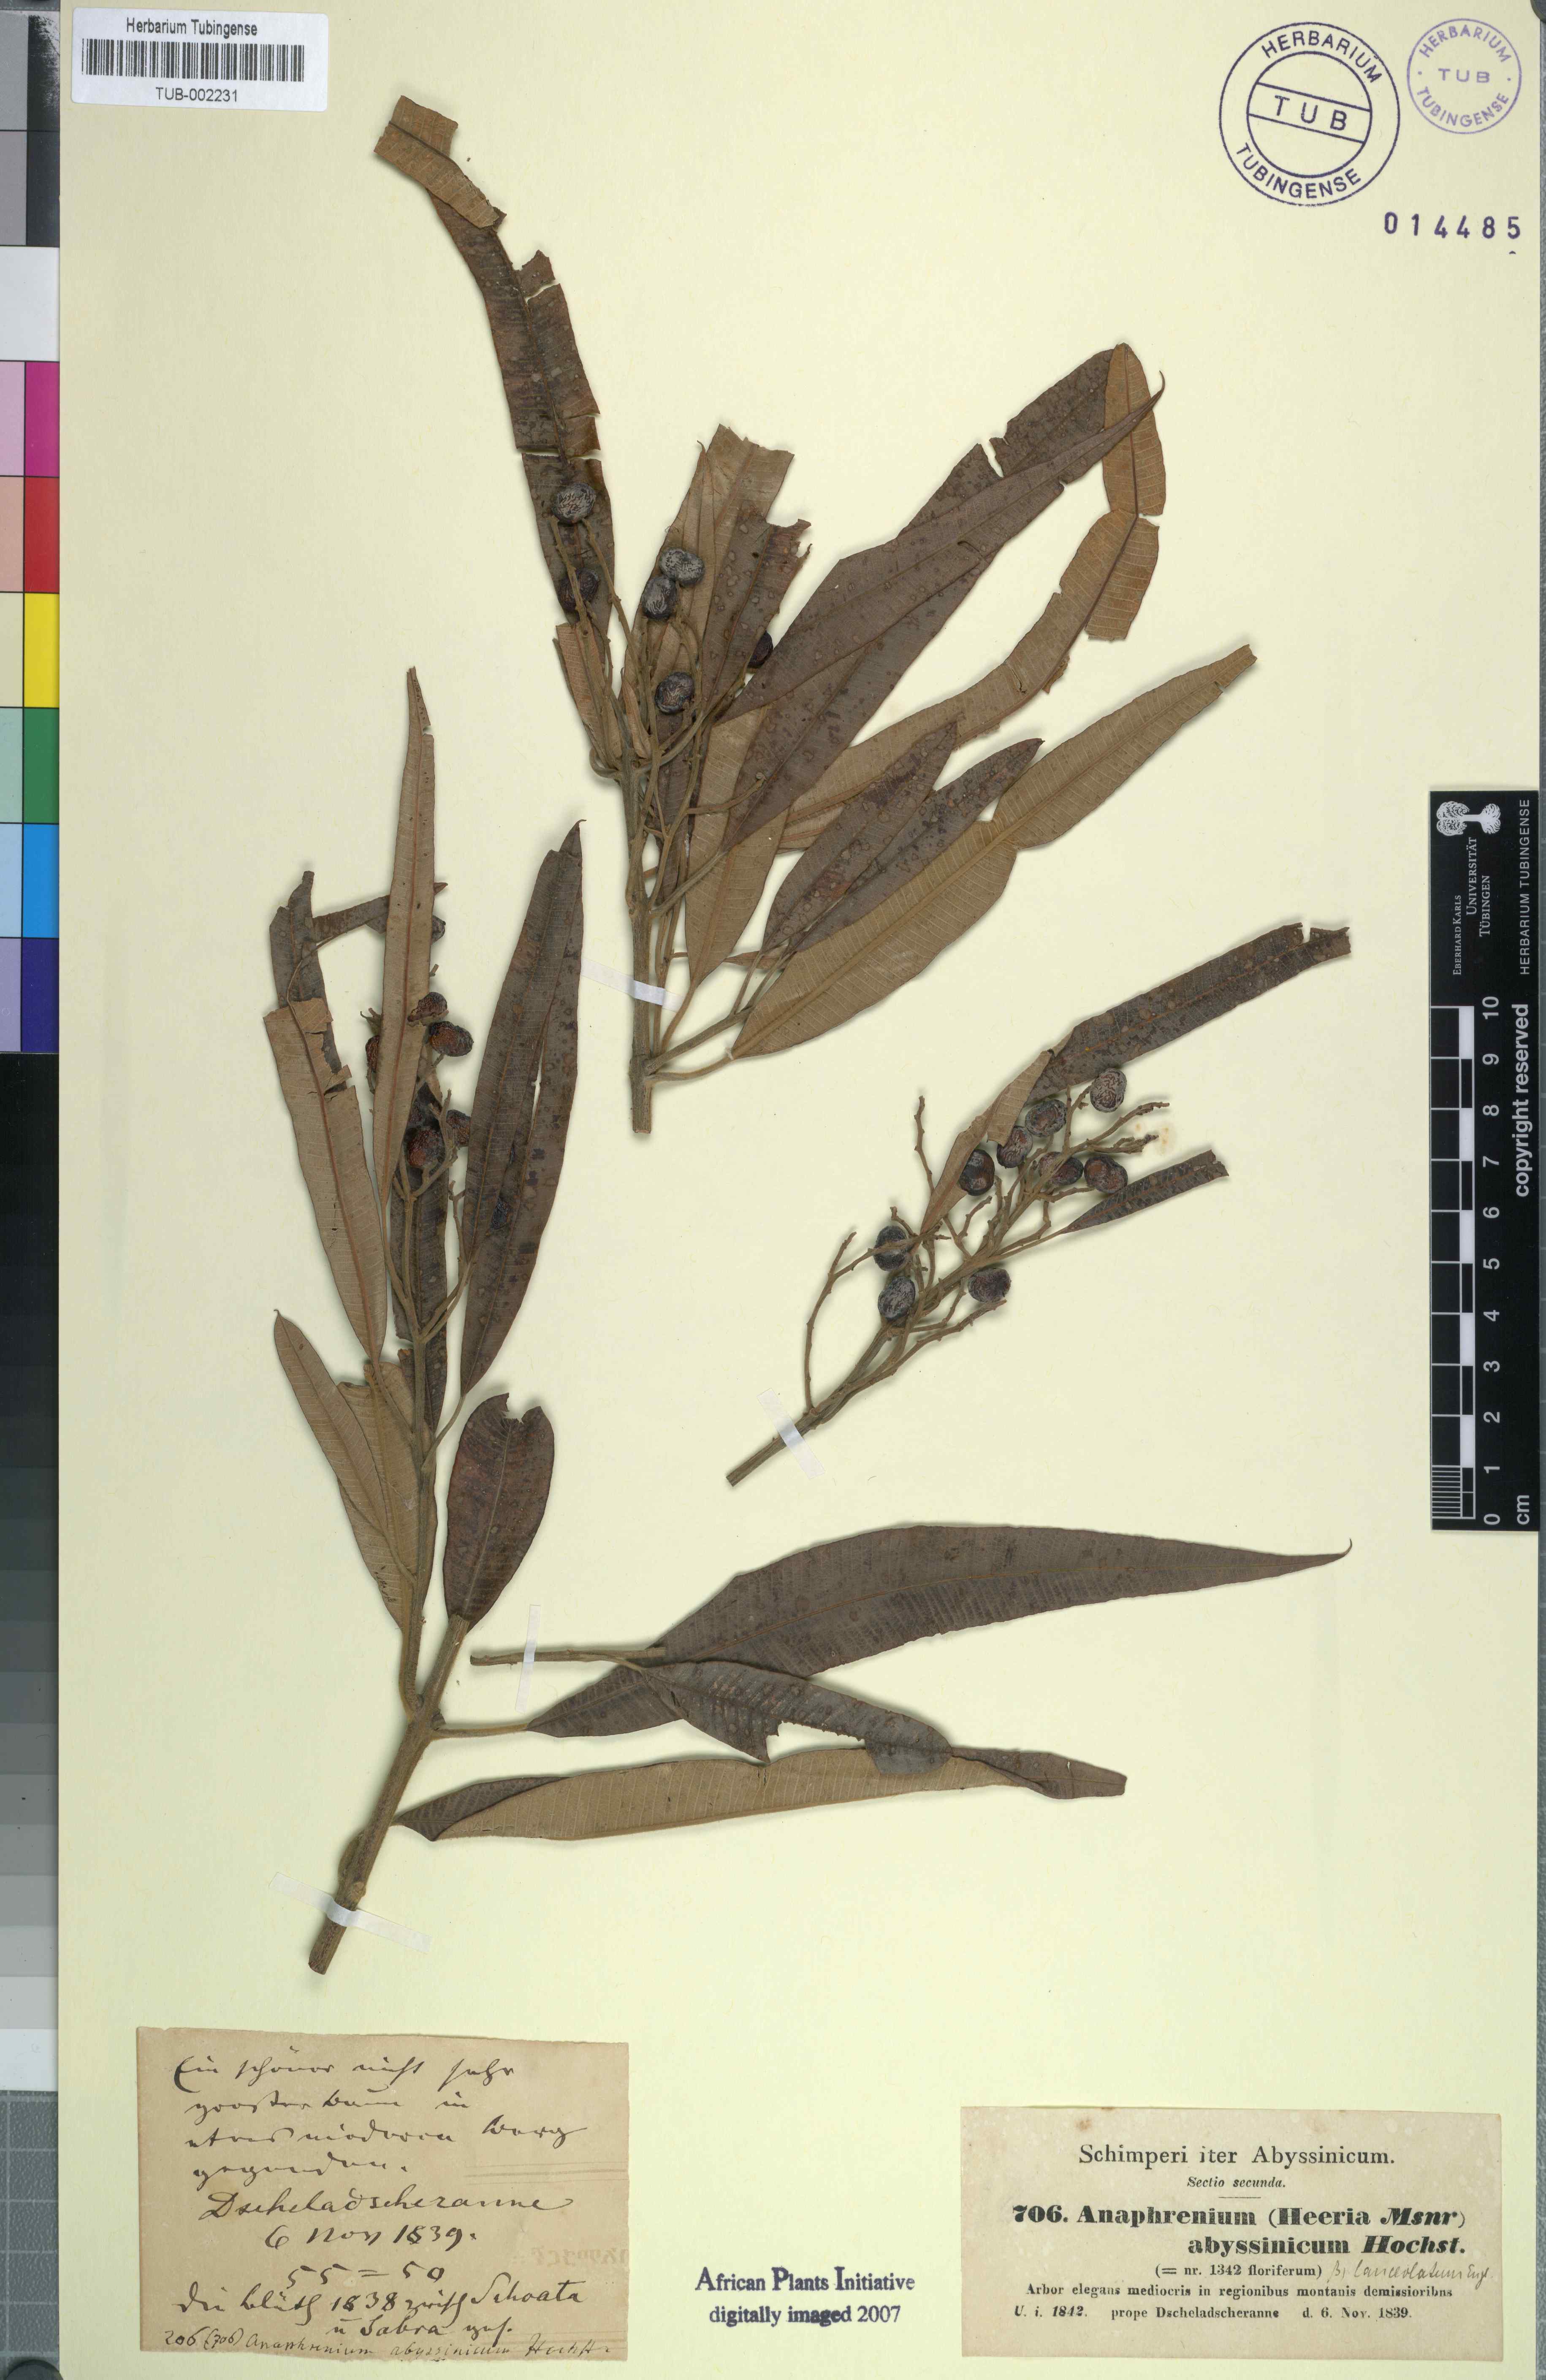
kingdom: Plantae
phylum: Tracheophyta
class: Magnoliopsida
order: Sapindales
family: Anacardiaceae
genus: Ozoroa
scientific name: Ozoroa insignis
